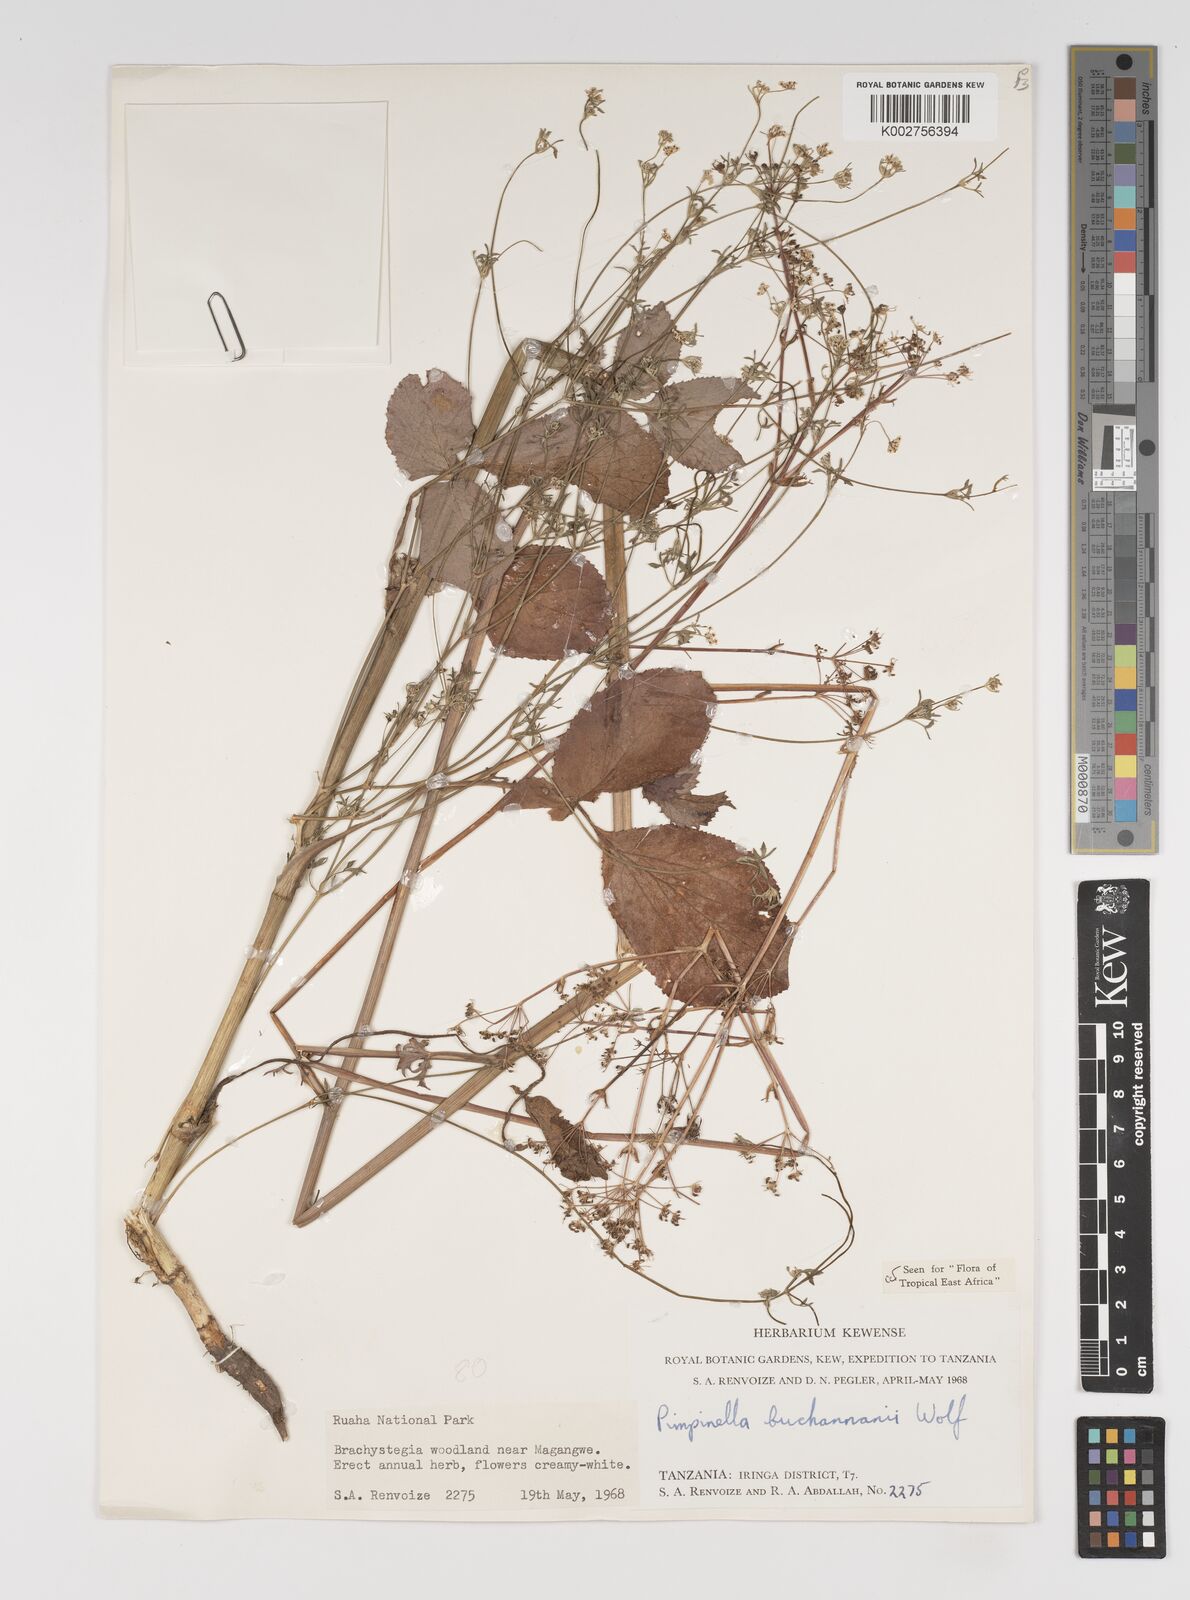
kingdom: Plantae
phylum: Tracheophyta
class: Magnoliopsida
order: Apiales
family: Apiaceae
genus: Pimpinella
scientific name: Pimpinella buchananii
